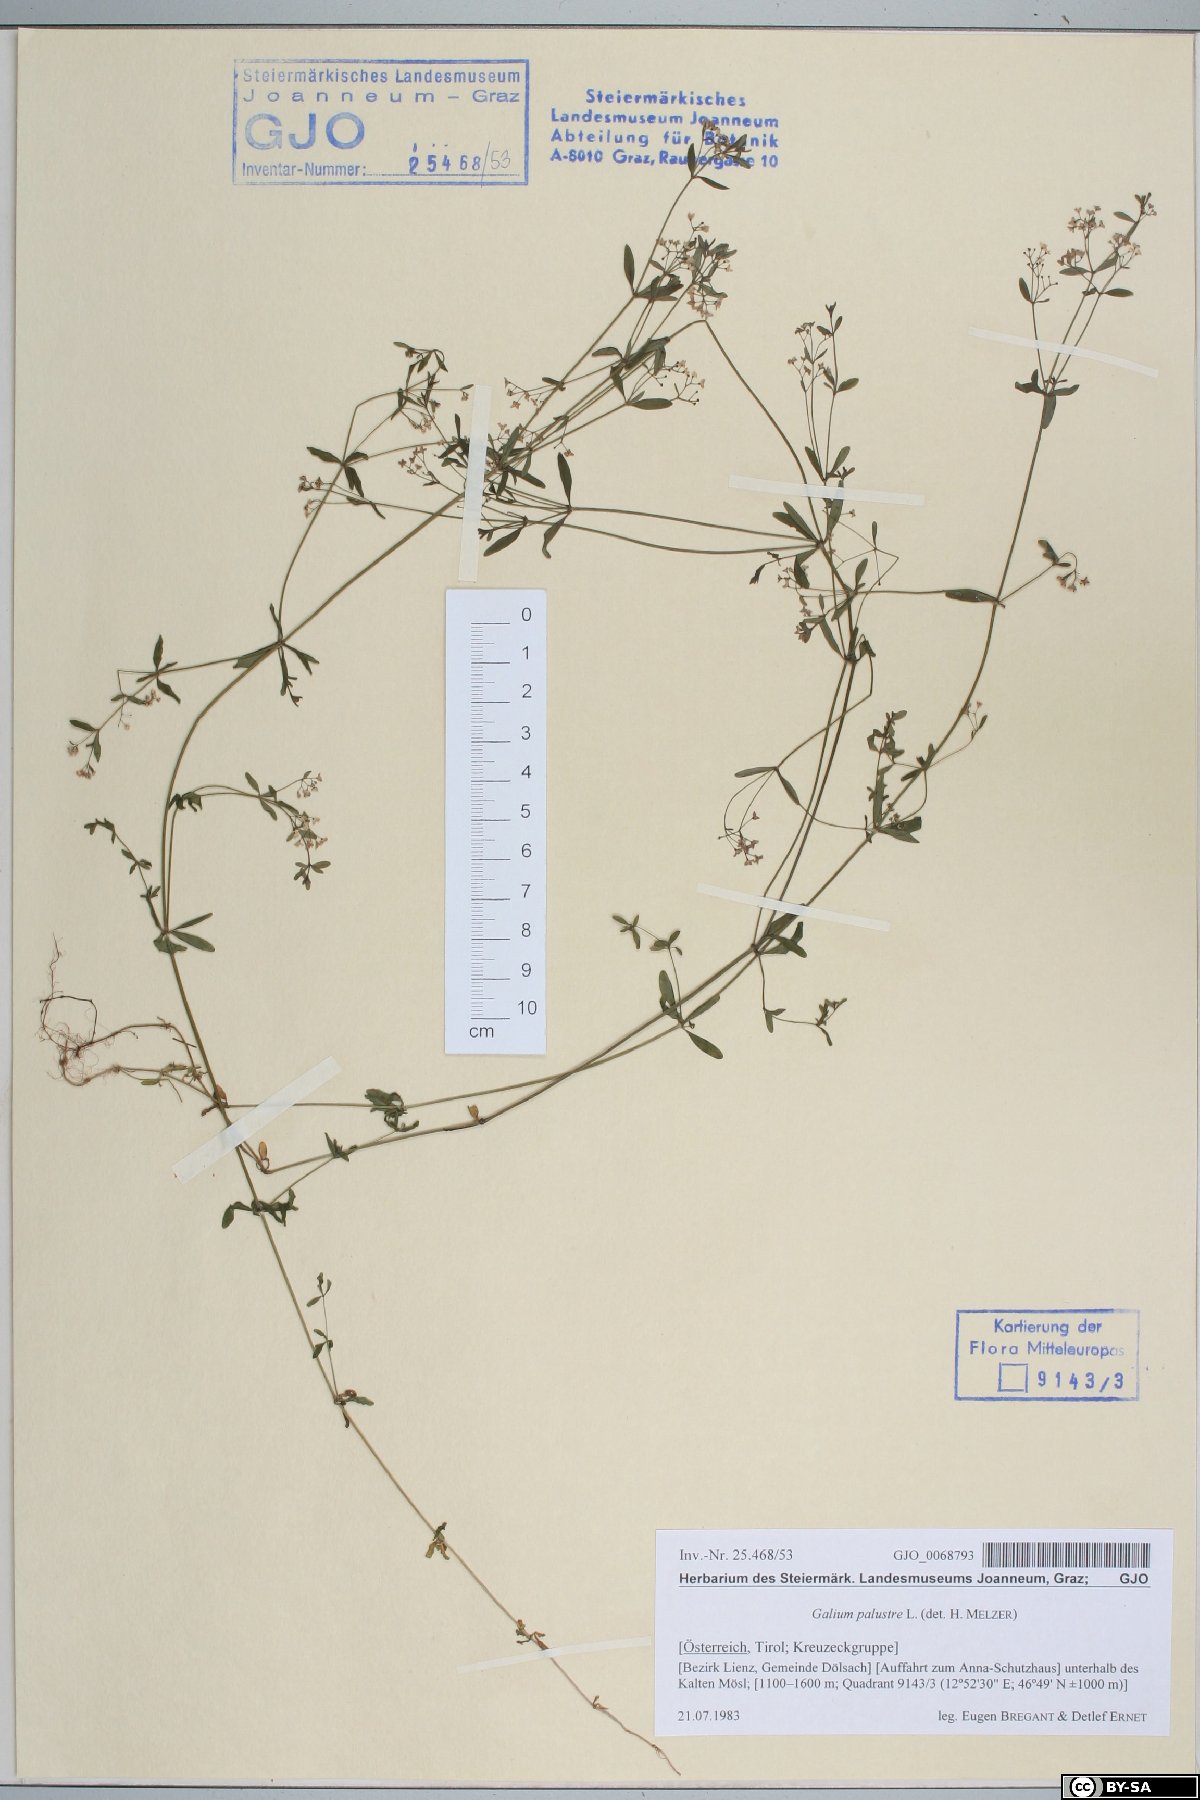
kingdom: Plantae
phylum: Tracheophyta
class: Magnoliopsida
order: Gentianales
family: Rubiaceae
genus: Galium
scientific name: Galium palustre
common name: Common marsh-bedstraw
